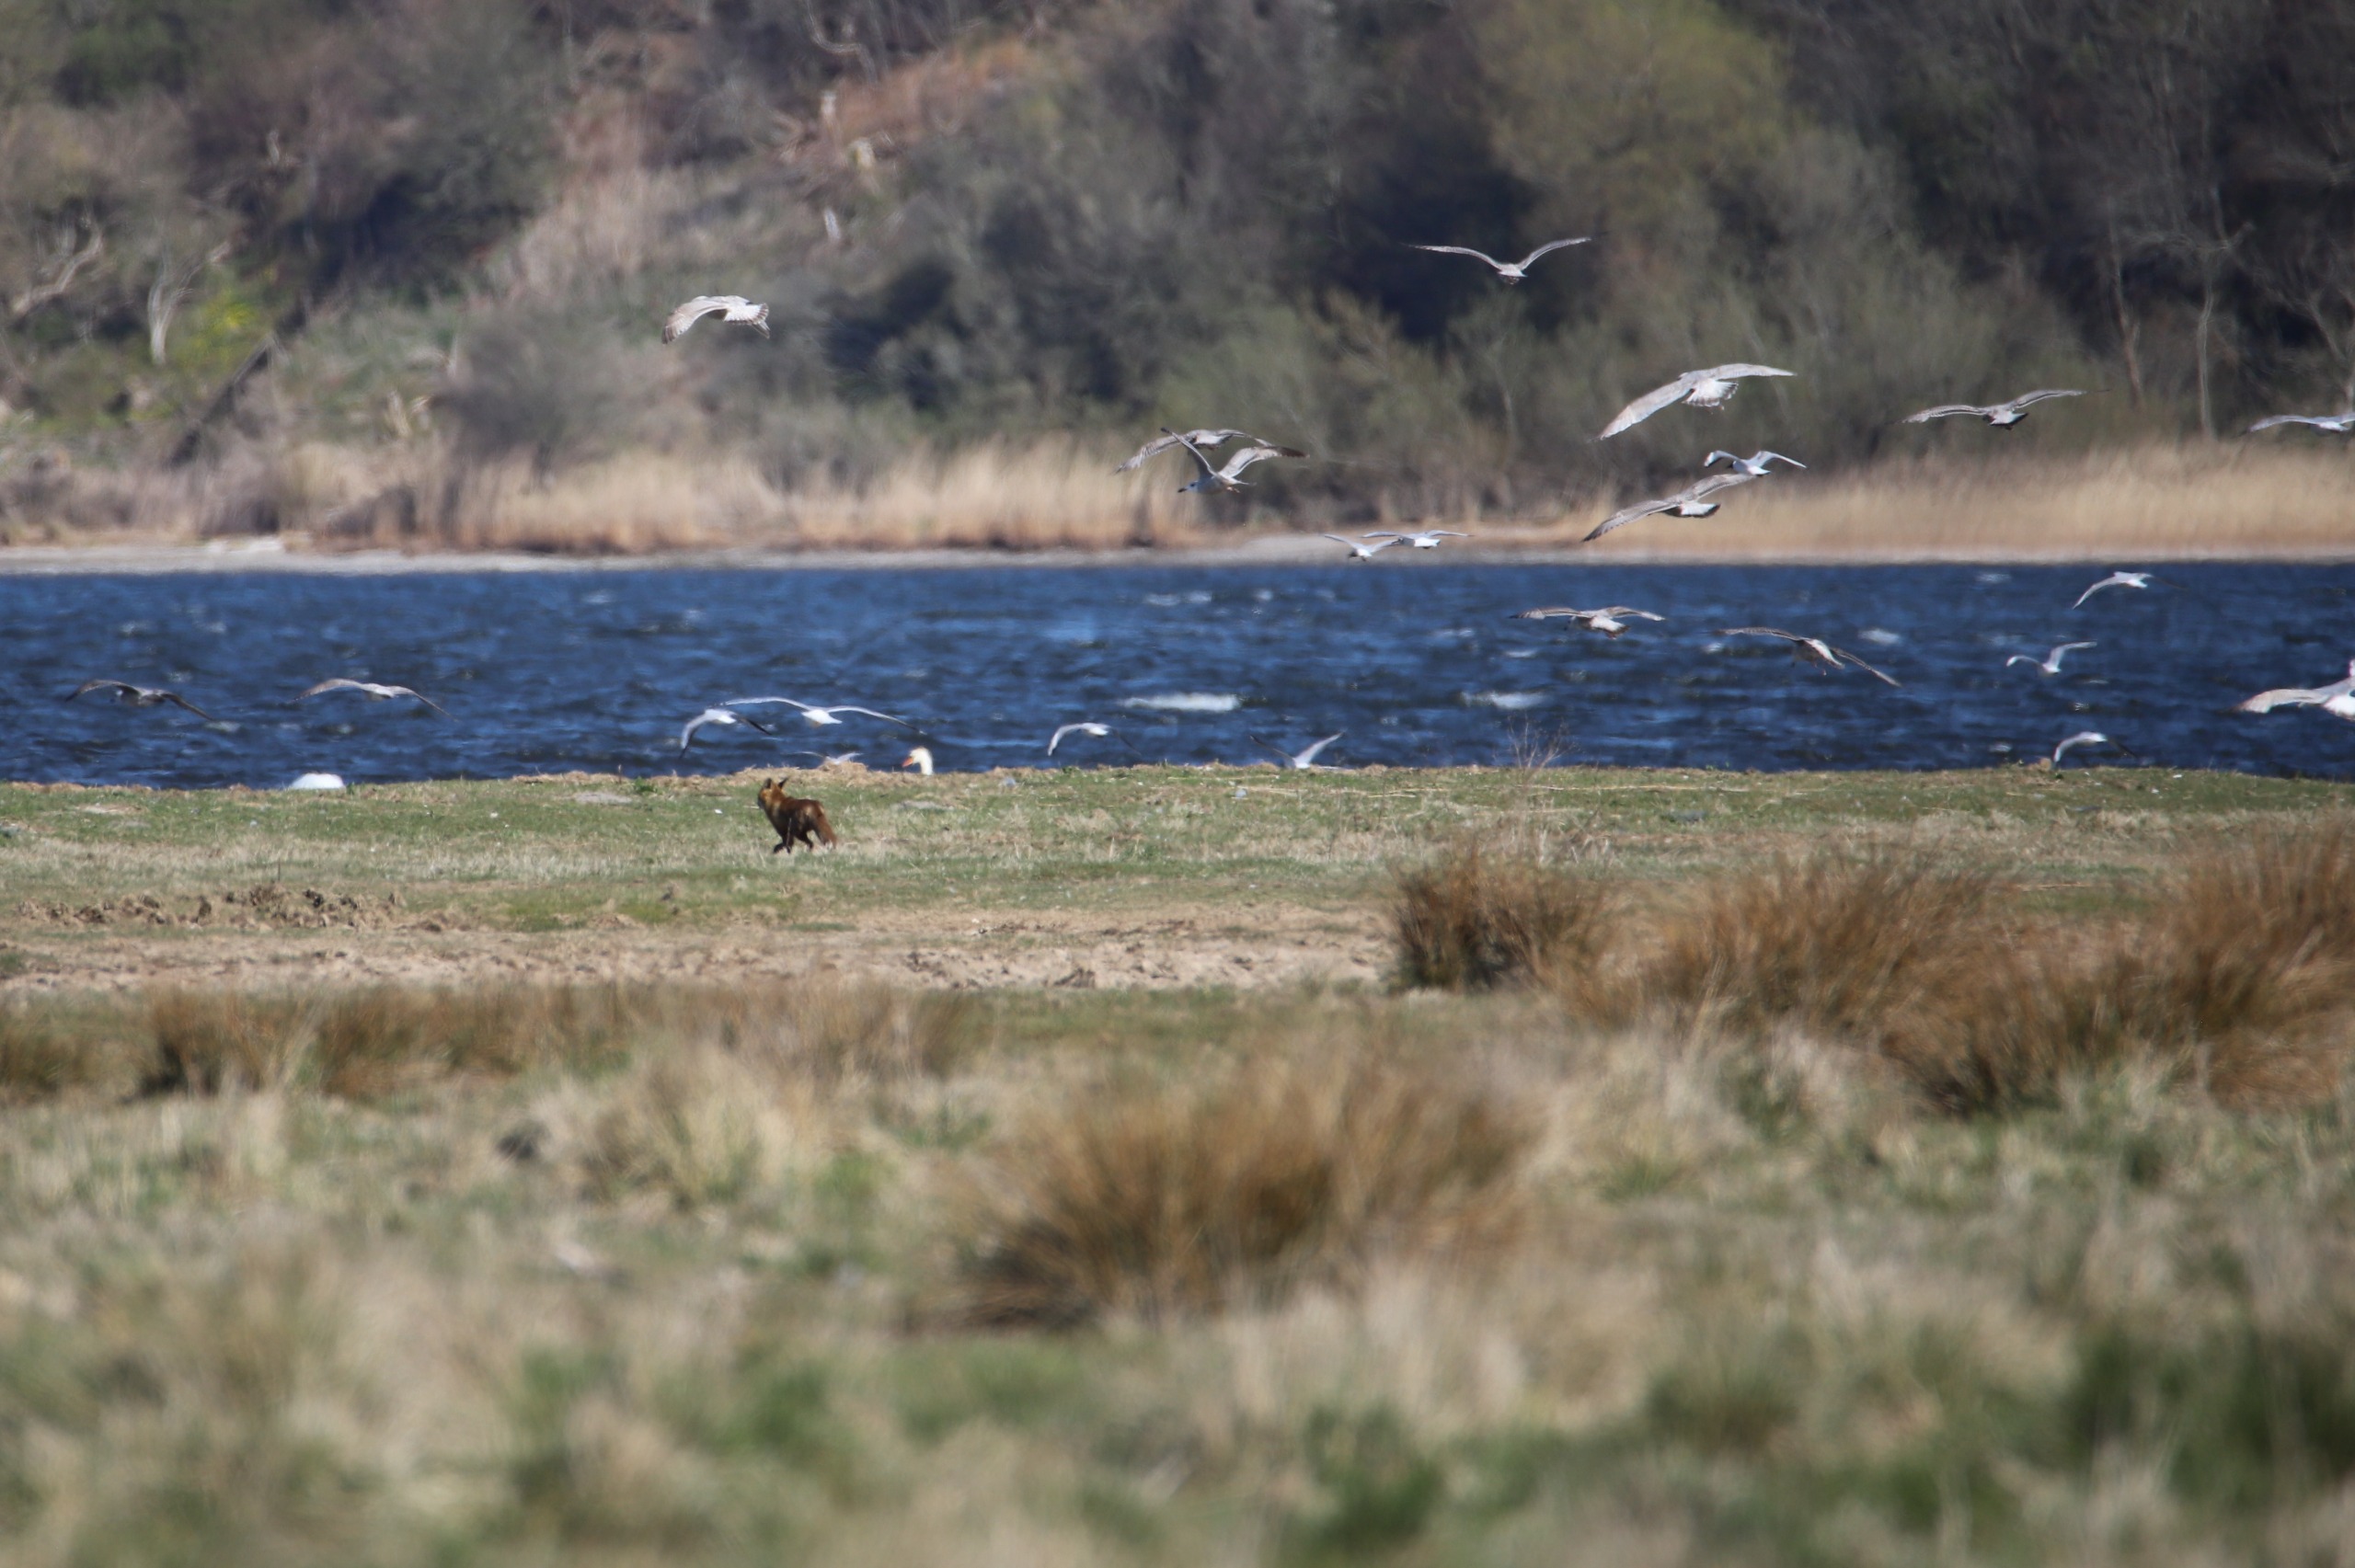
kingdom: Animalia
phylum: Chordata
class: Mammalia
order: Carnivora
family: Canidae
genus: Vulpes
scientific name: Vulpes vulpes
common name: Ræv
